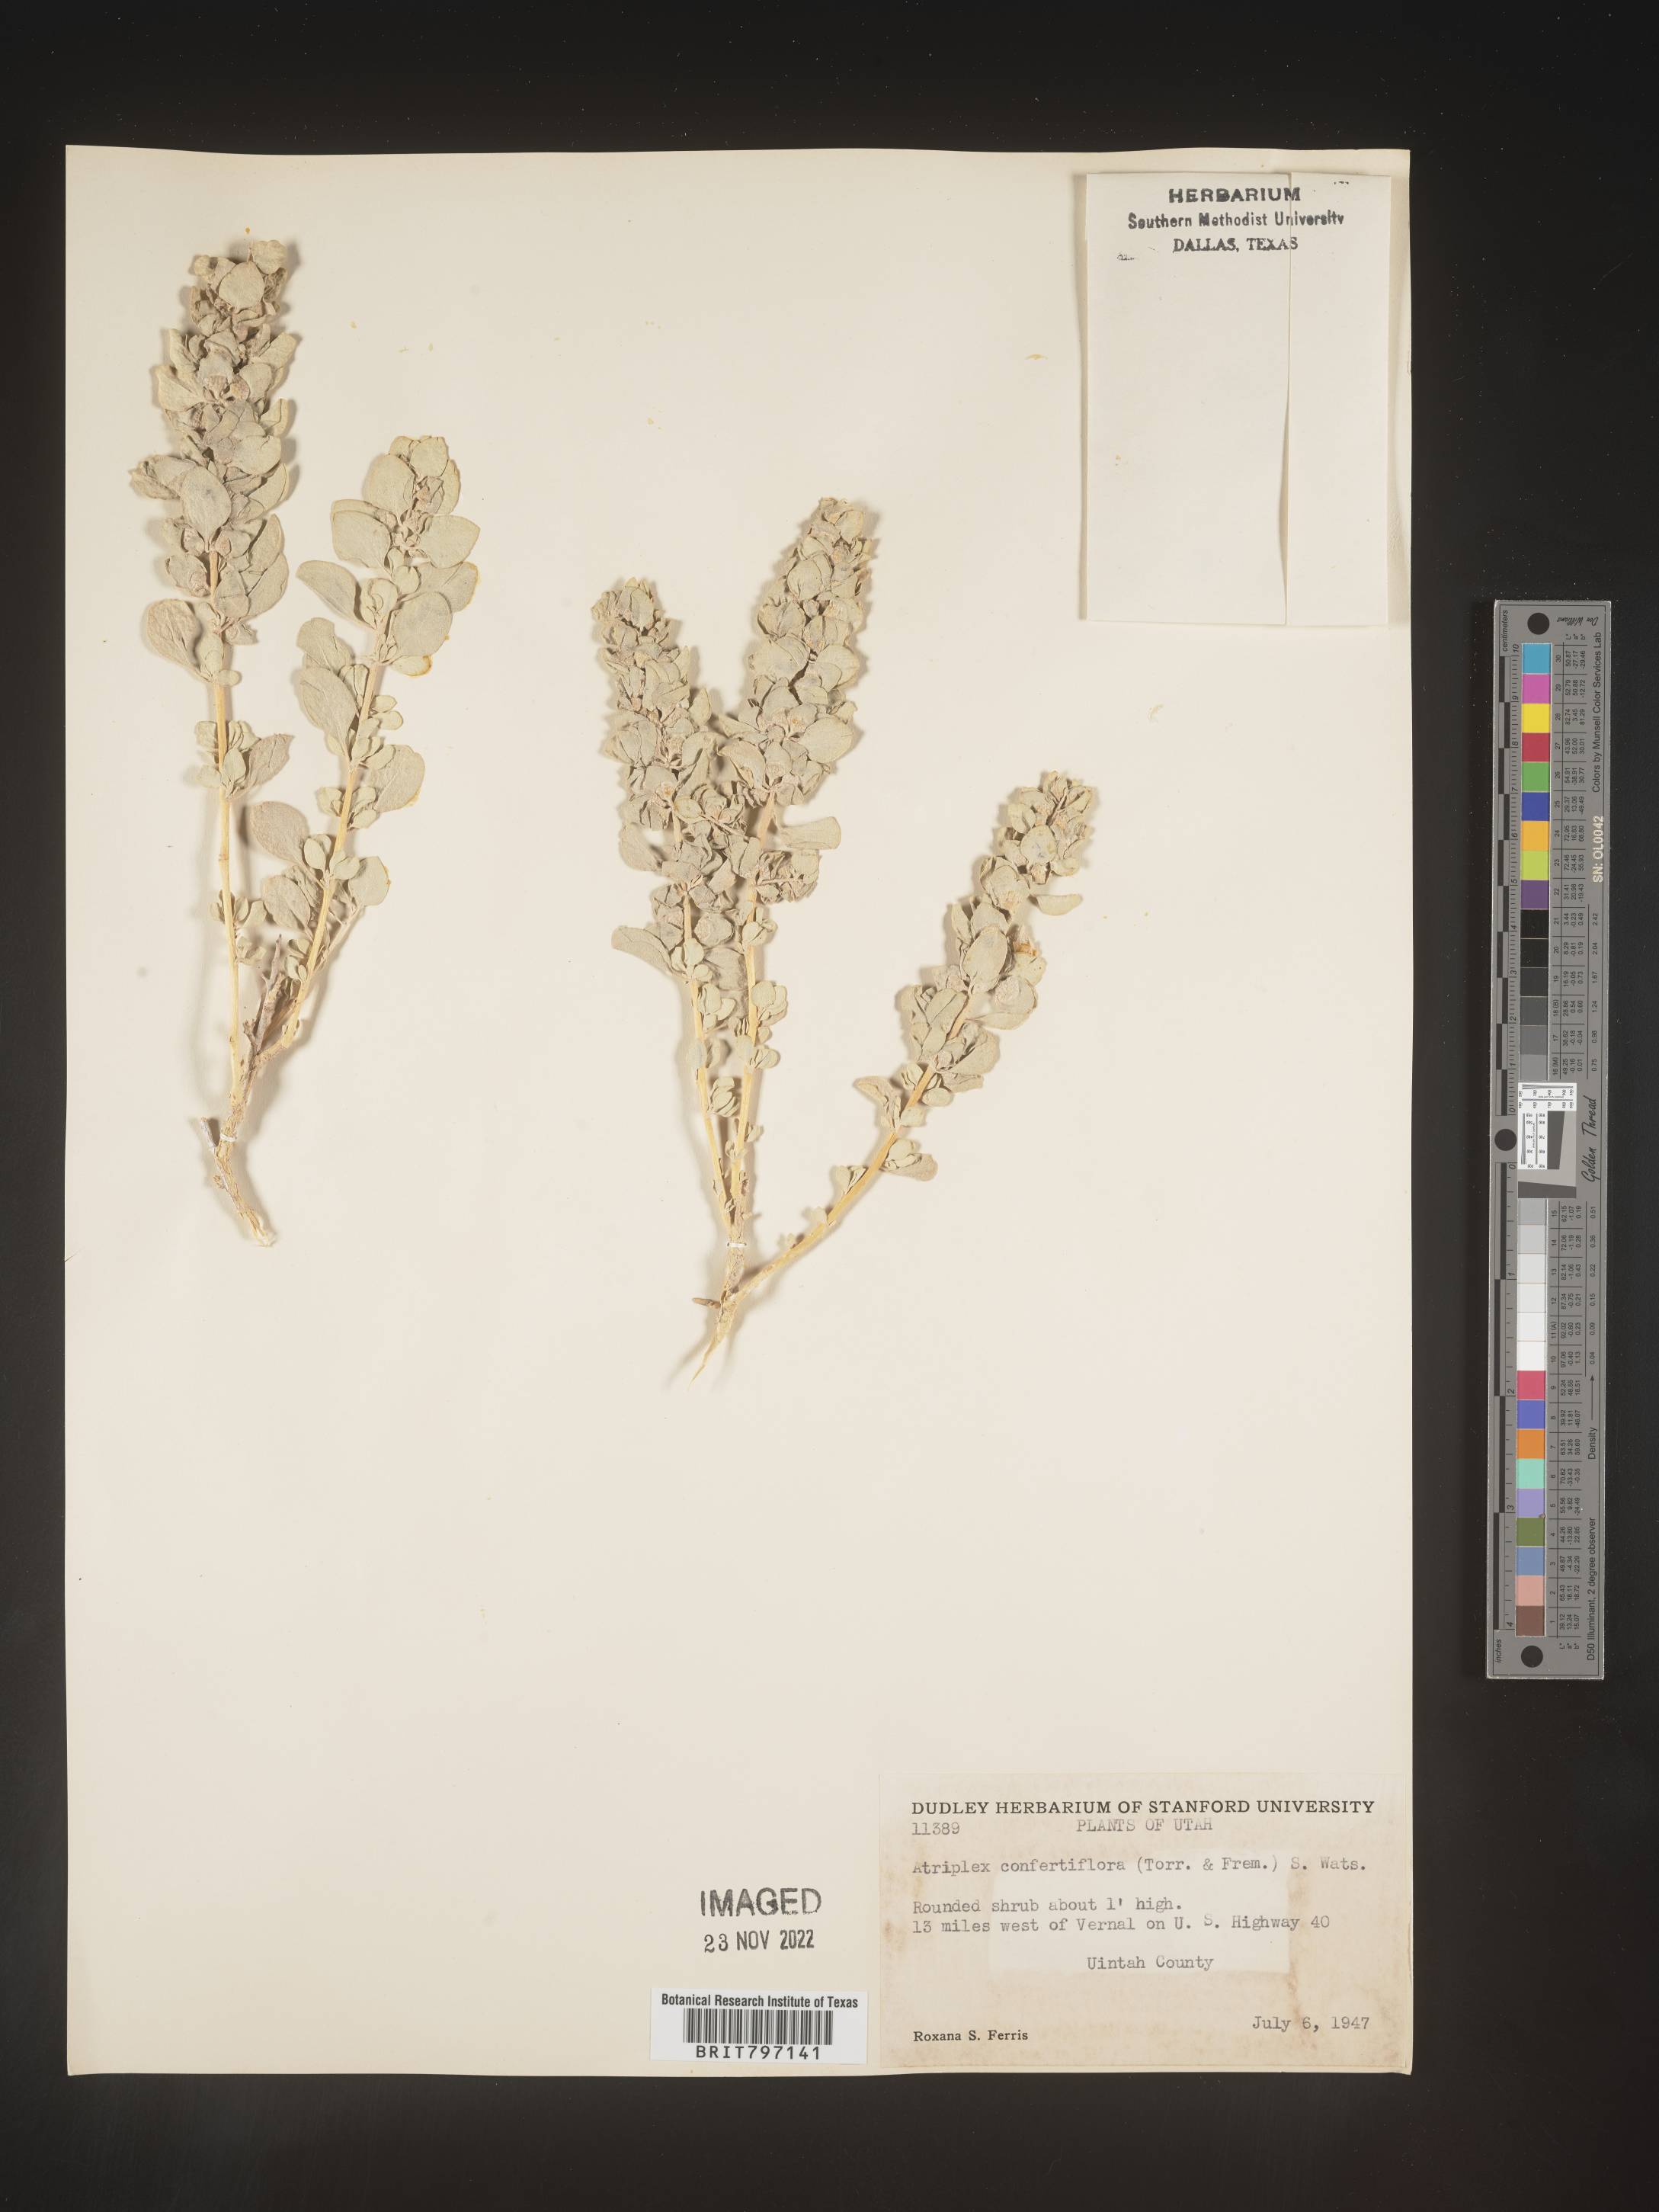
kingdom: Plantae
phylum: Tracheophyta
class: Magnoliopsida
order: Caryophyllales
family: Amaranthaceae
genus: Atriplex
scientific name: Atriplex confertifolia
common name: Shadscale
